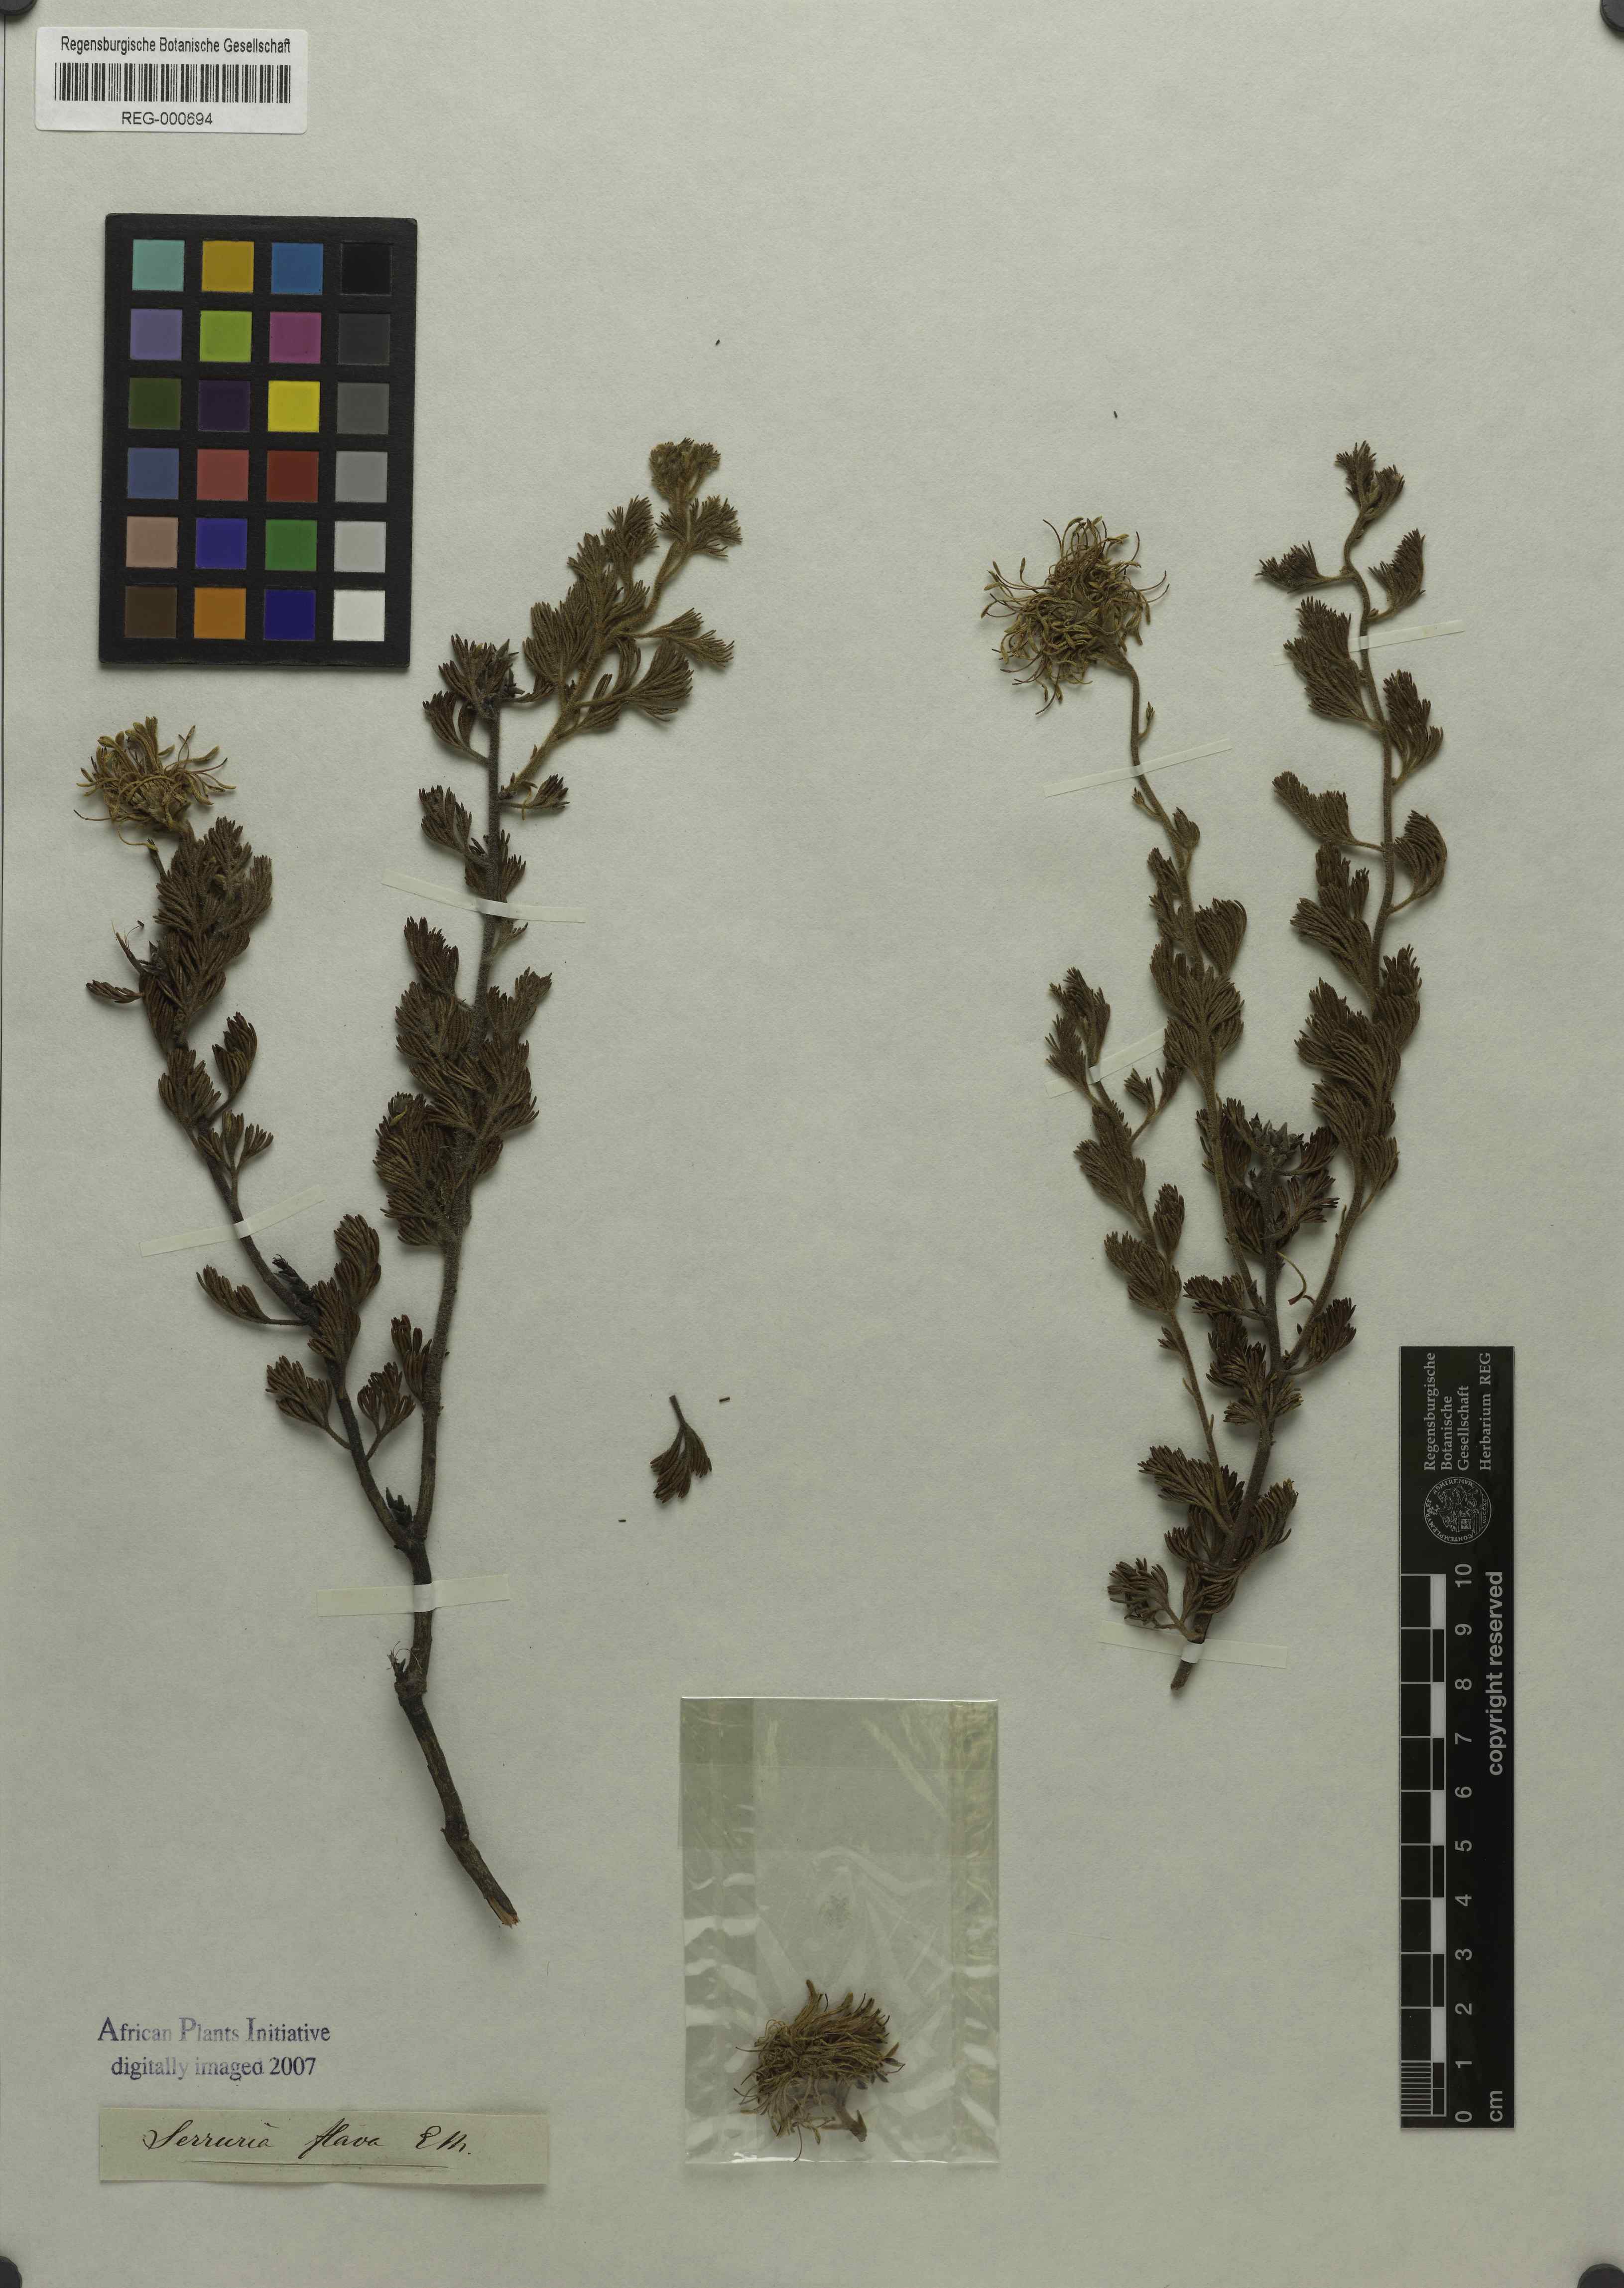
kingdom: Plantae
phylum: Tracheophyta
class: Magnoliopsida
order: Proteales
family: Proteaceae
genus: Serruria
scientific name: Serruria flava
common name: Spiderhead
